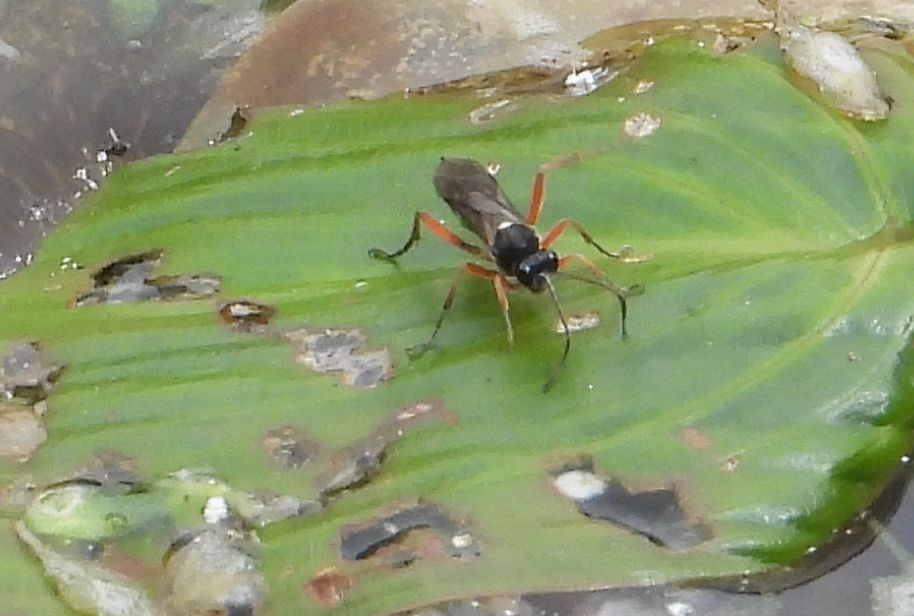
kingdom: Animalia
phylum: Arthropoda
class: Insecta
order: Hymenoptera
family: Ichneumonidae
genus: Apsilops
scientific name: Apsilops cinctorius
